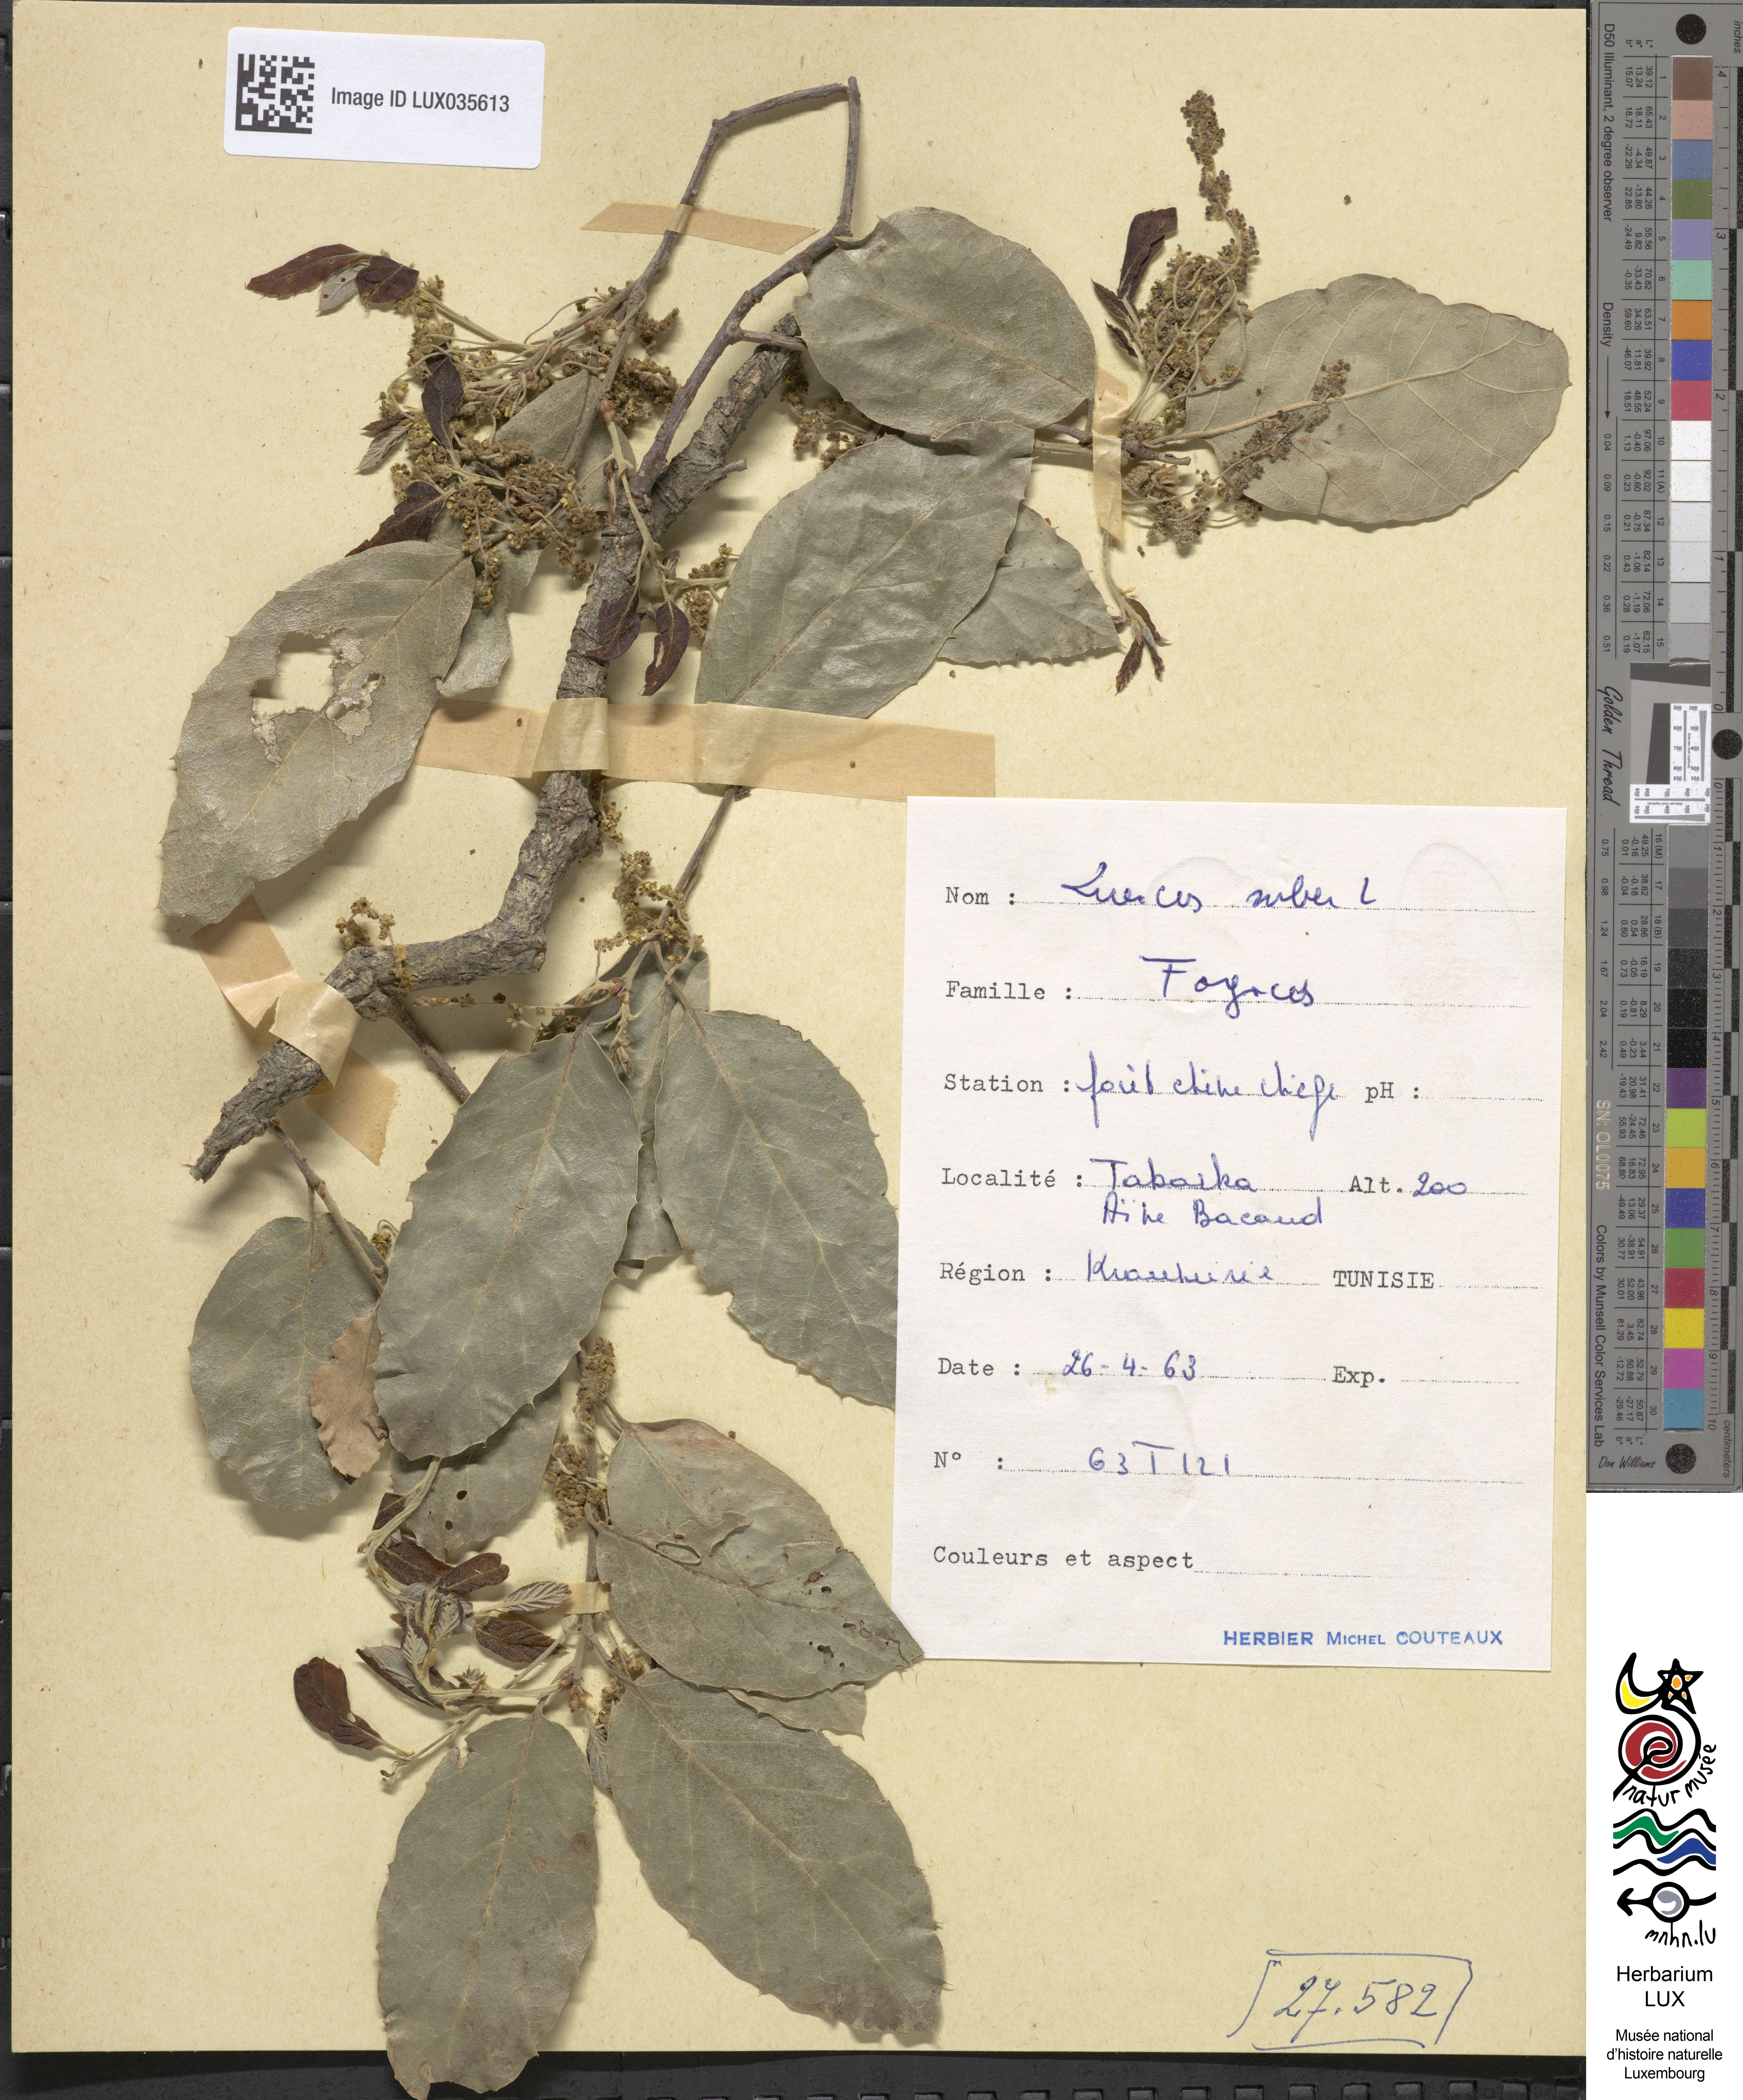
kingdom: Plantae
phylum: Tracheophyta
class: Magnoliopsida
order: Fagales
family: Fagaceae
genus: Quercus
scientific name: Quercus suber
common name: Cork oak
